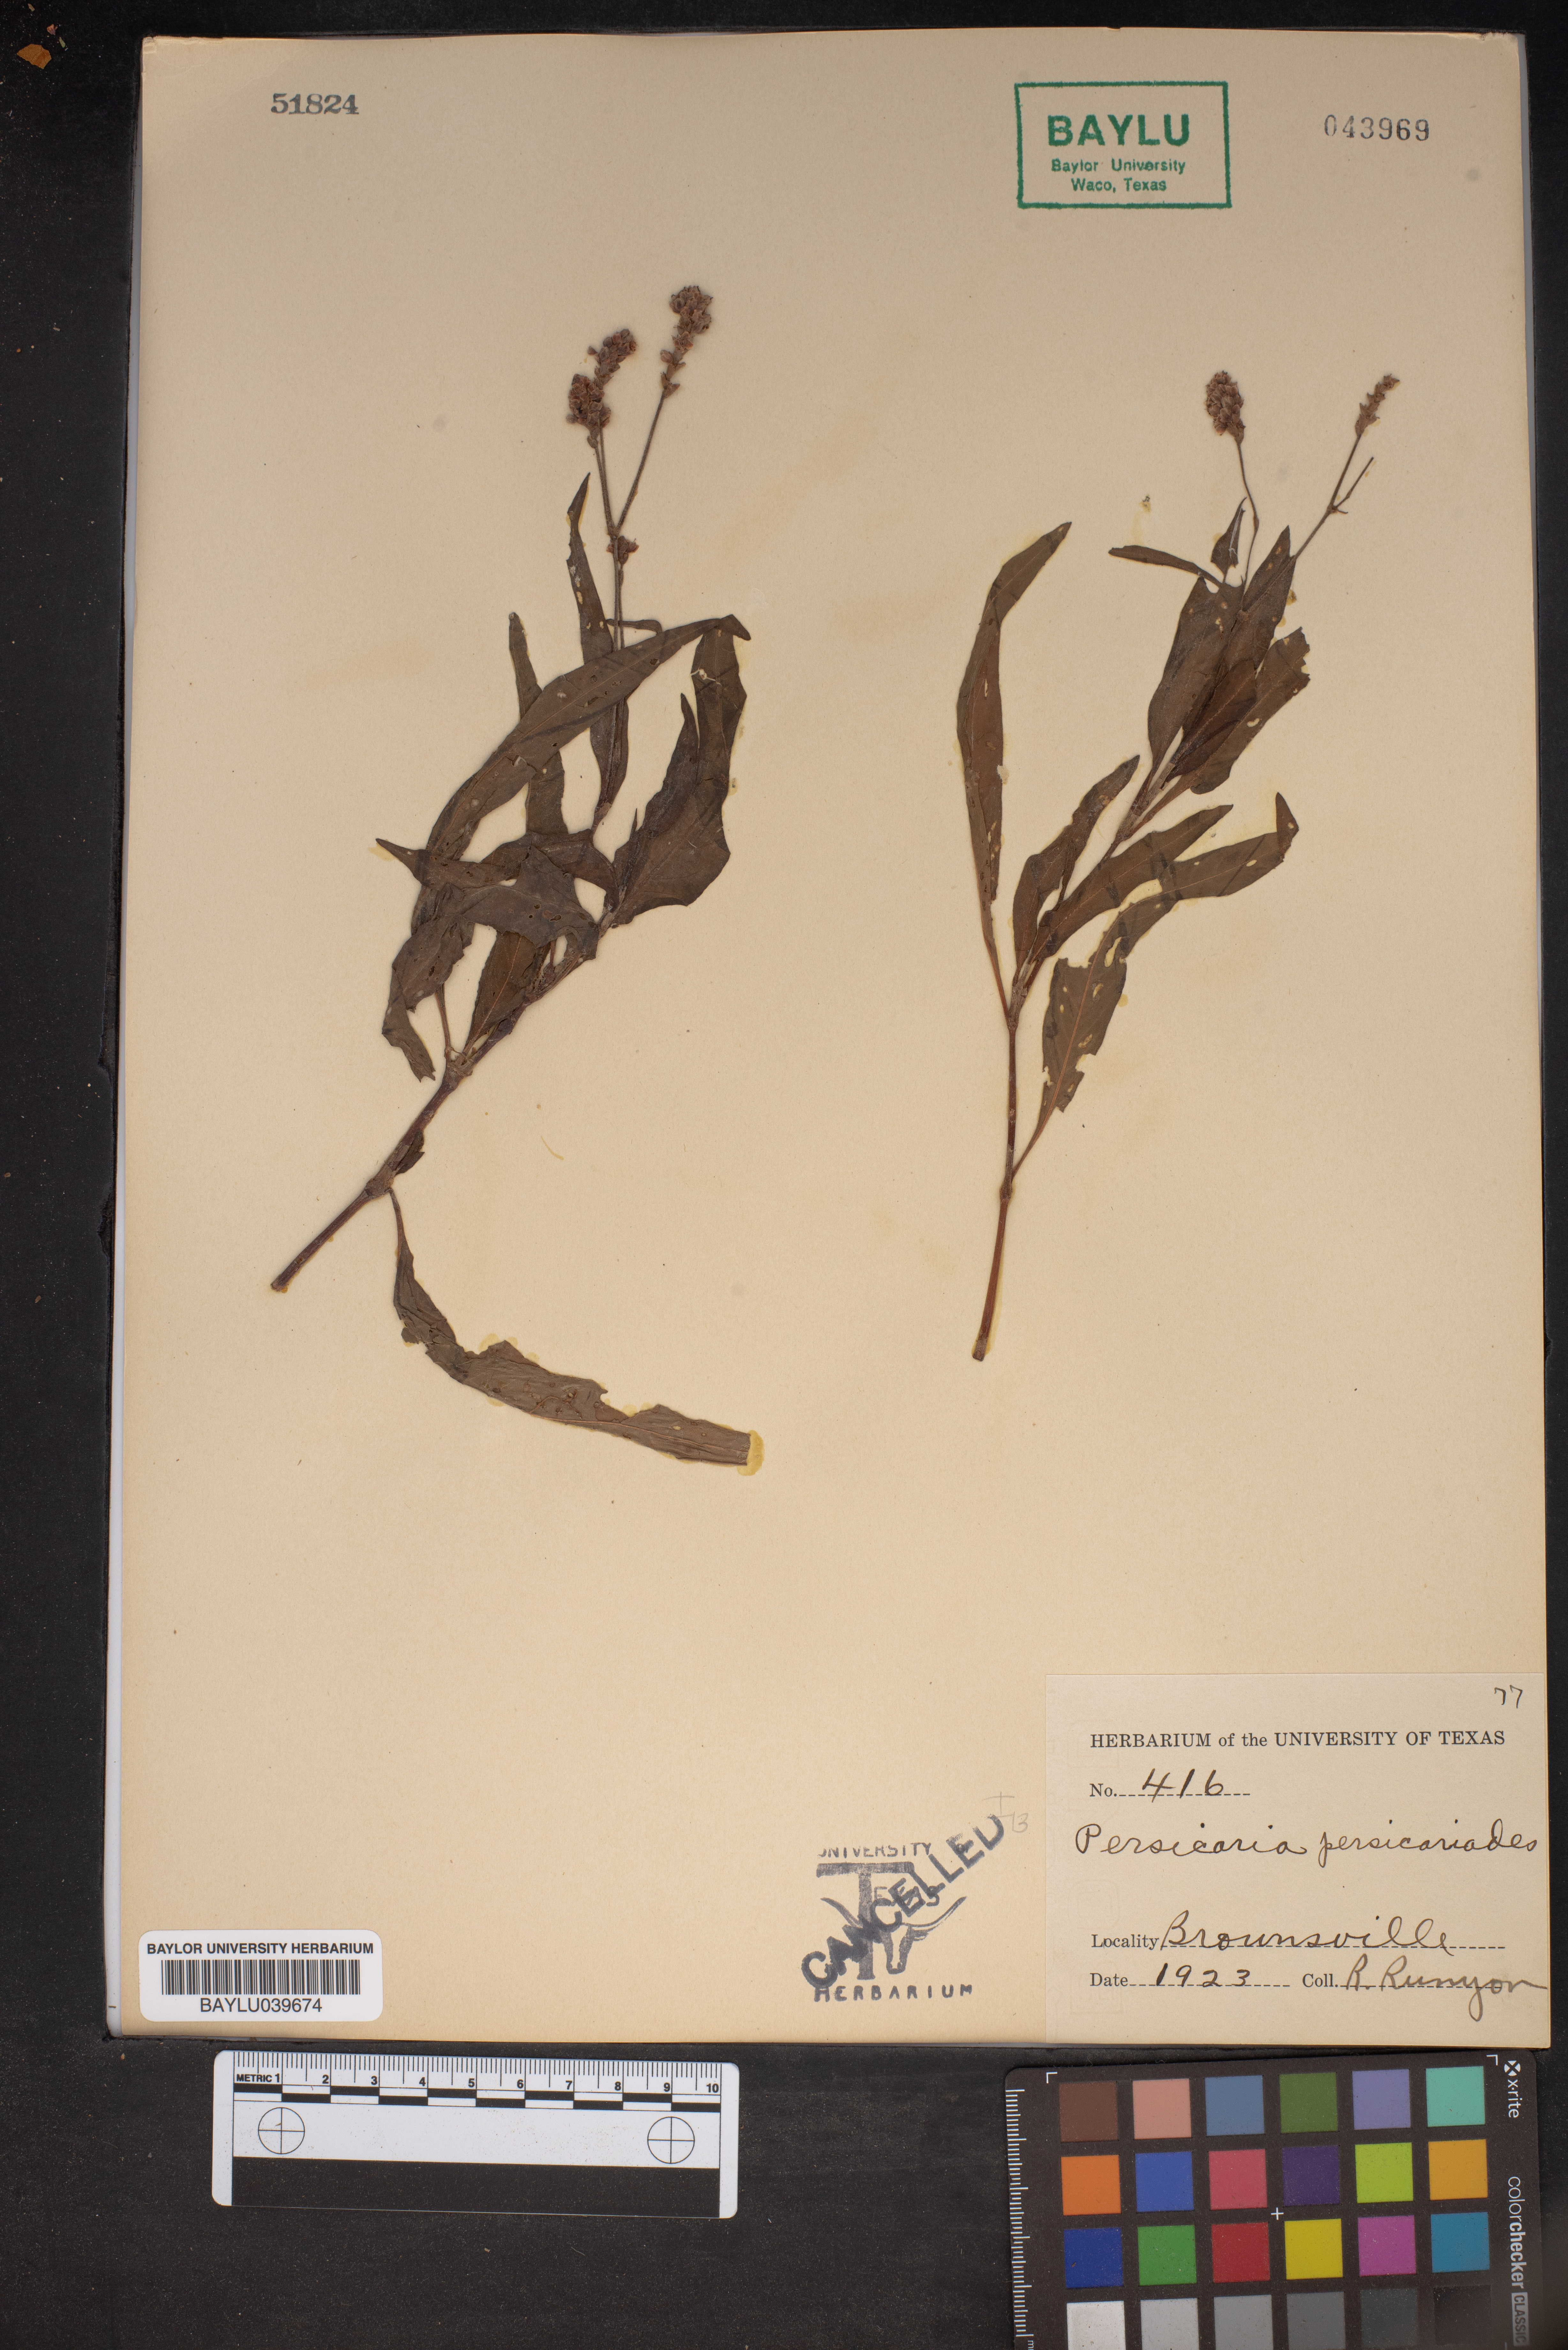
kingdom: Plantae
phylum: Tracheophyta
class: Magnoliopsida
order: Caryophyllales
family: Polygonaceae
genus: Persicaria
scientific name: Persicaria hydropiperoides
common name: Swamp smartweed
